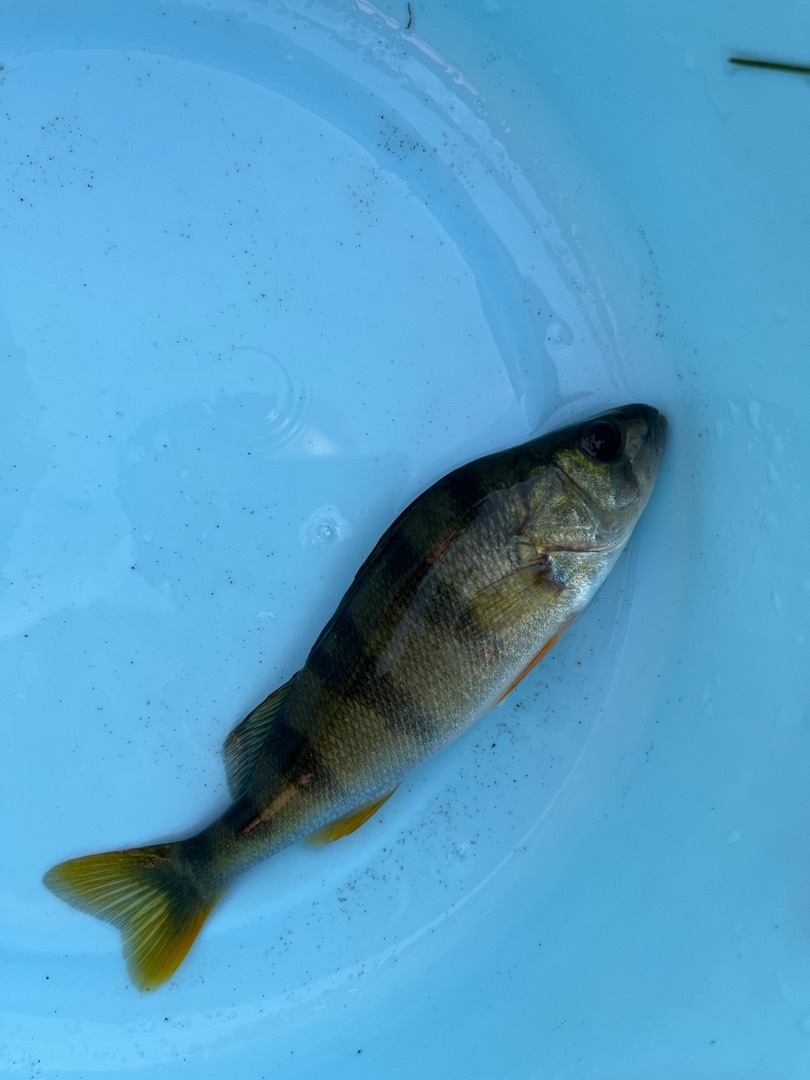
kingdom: Animalia
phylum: Chordata
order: Perciformes
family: Percidae
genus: Perca
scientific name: Perca fluviatilis
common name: Aborre
